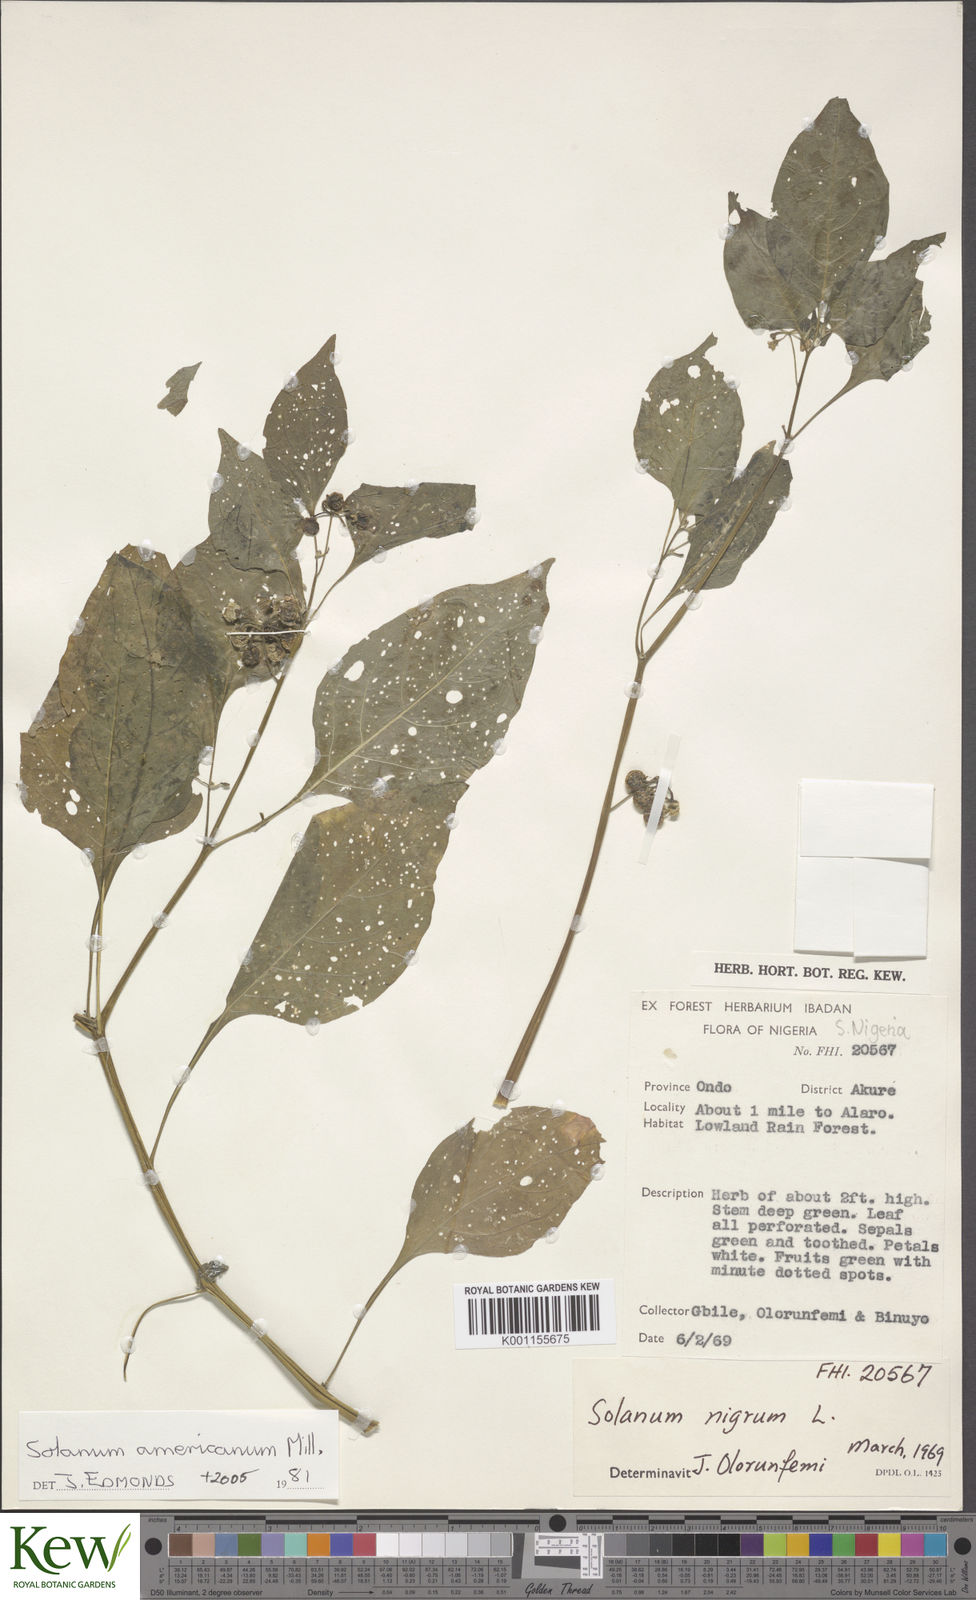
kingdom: Plantae
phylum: Tracheophyta
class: Magnoliopsida
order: Solanales
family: Solanaceae
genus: Solanum
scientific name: Solanum scabrum
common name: Garden-huckleberry
